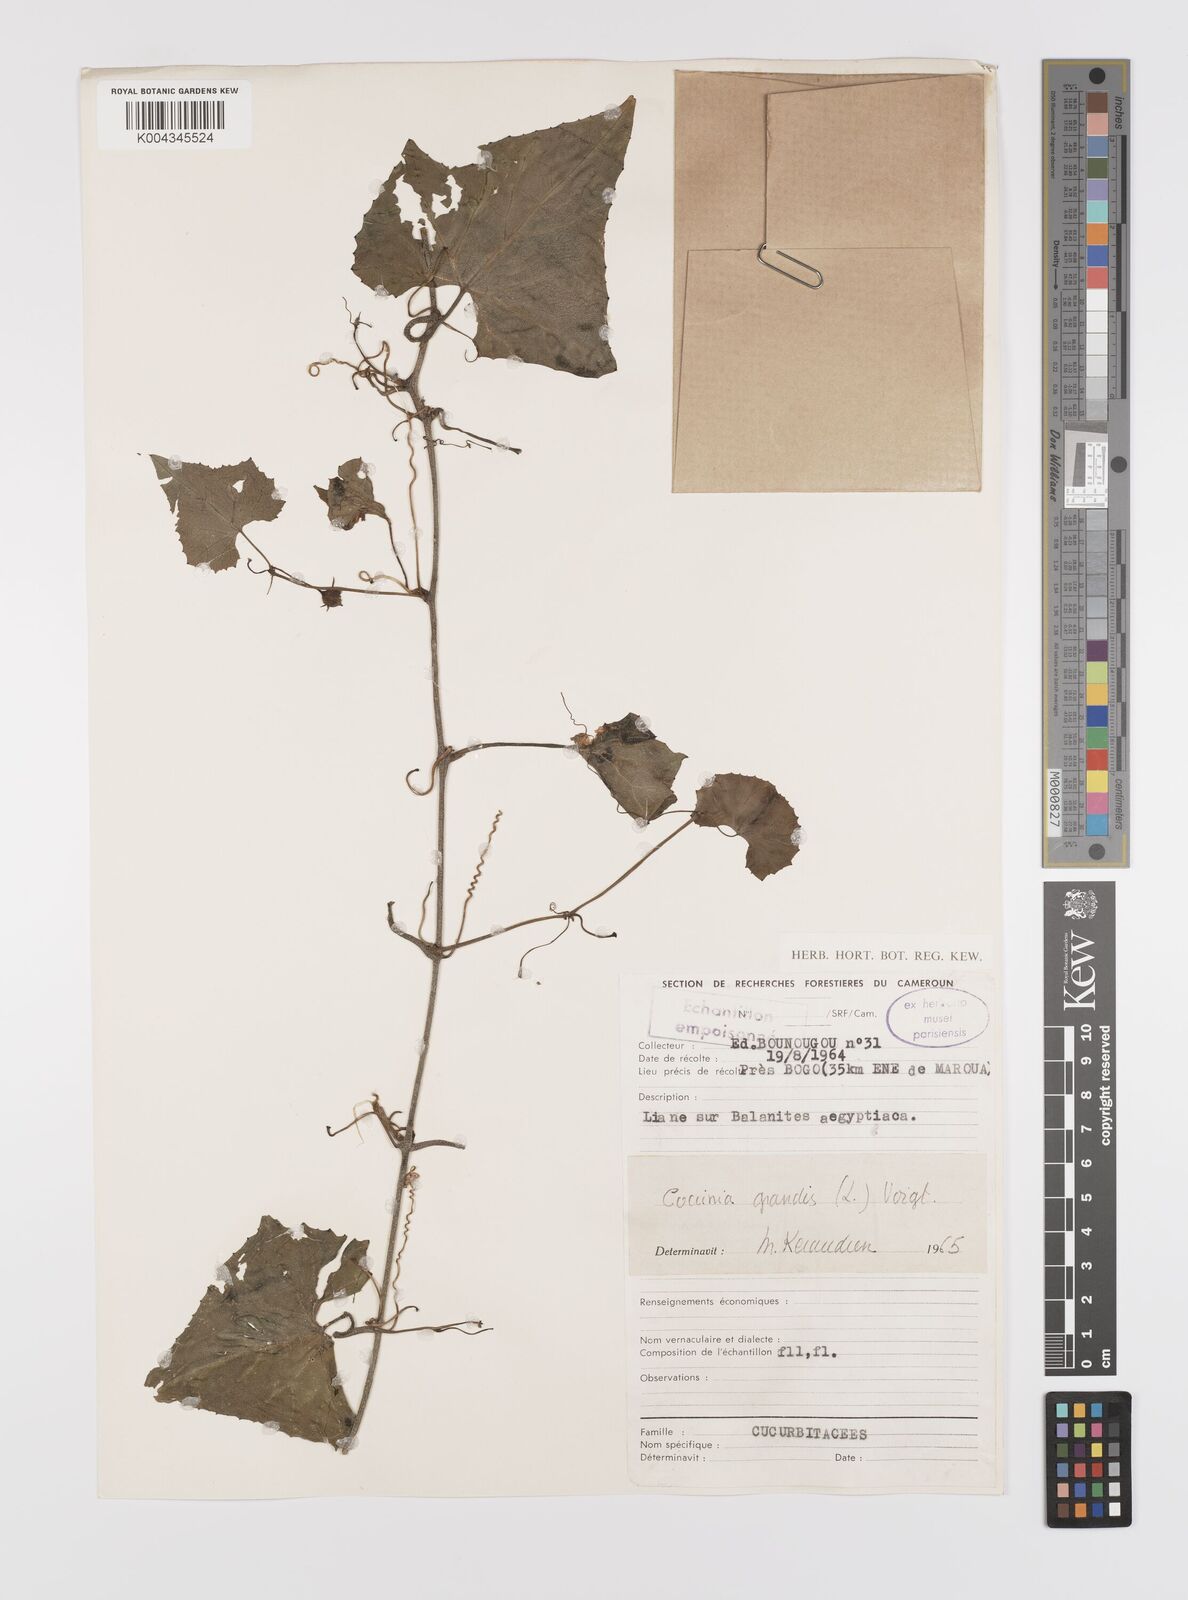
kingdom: Plantae
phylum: Tracheophyta
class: Magnoliopsida
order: Cucurbitales
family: Cucurbitaceae
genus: Coccinia
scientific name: Coccinia grandis
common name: Ivy gourd
